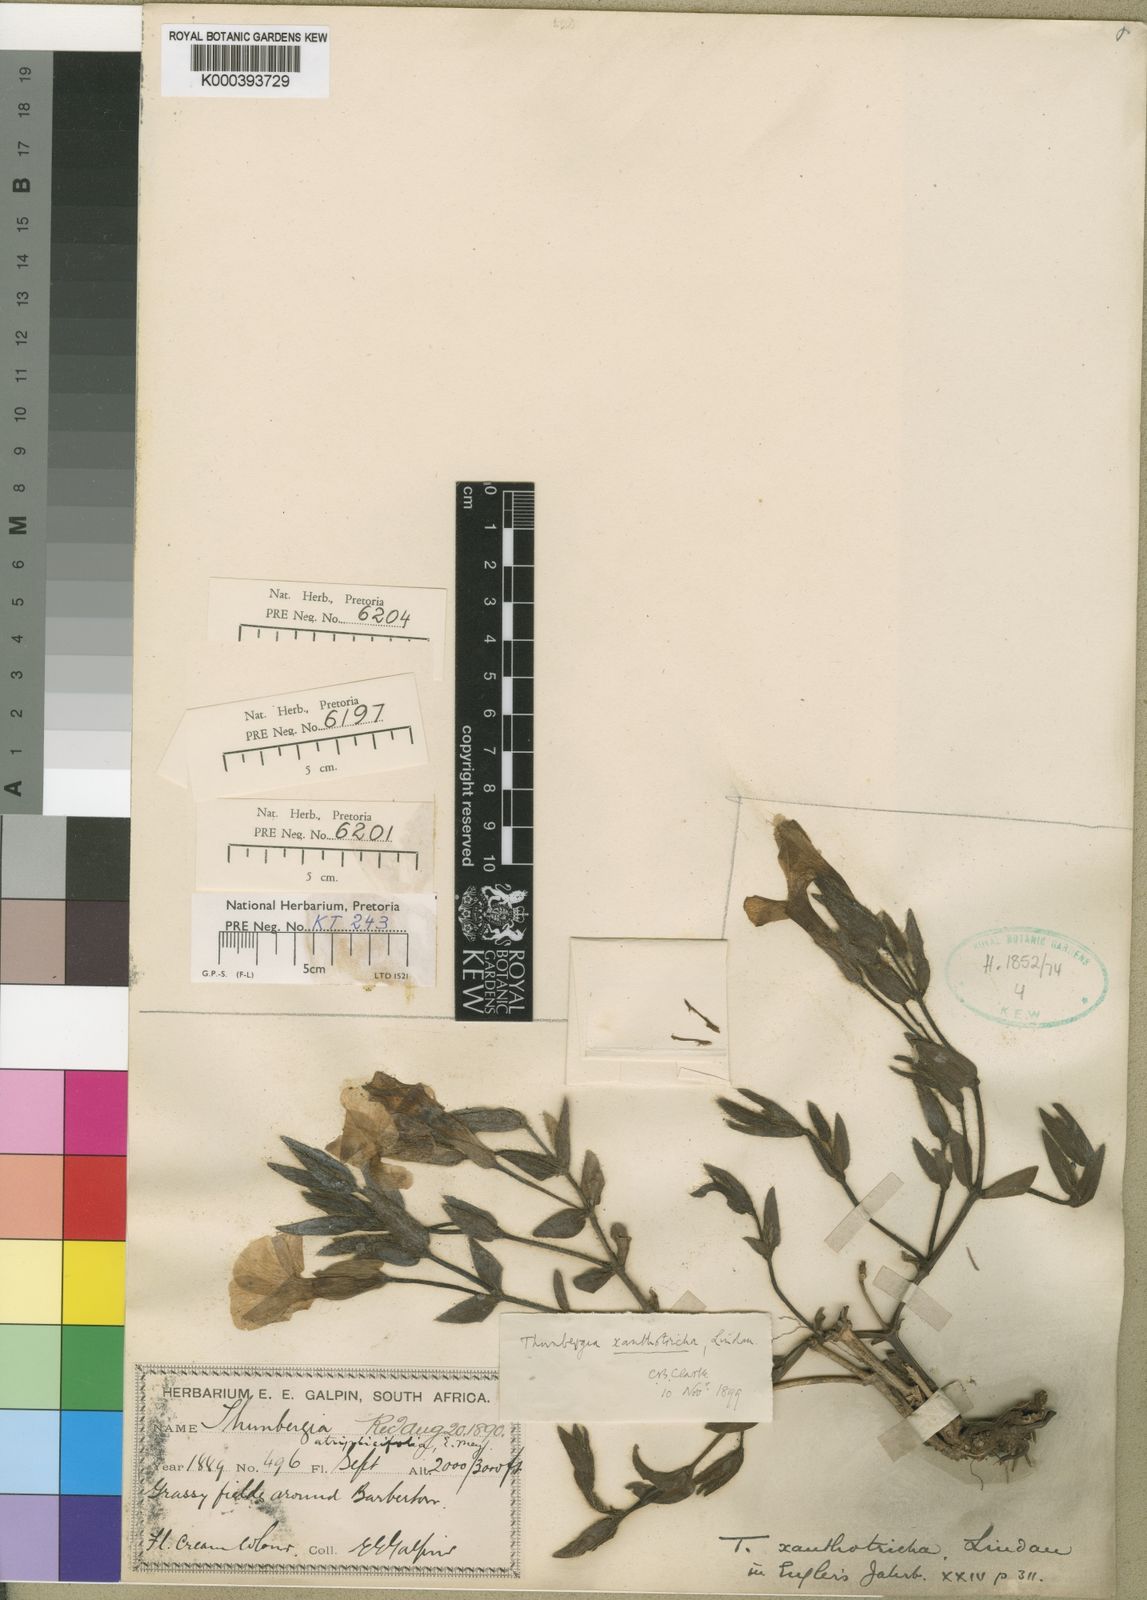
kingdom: Plantae
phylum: Tracheophyta
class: Magnoliopsida
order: Lamiales
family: Acanthaceae
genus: Thunbergia
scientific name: Thunbergia atriplicifolia
